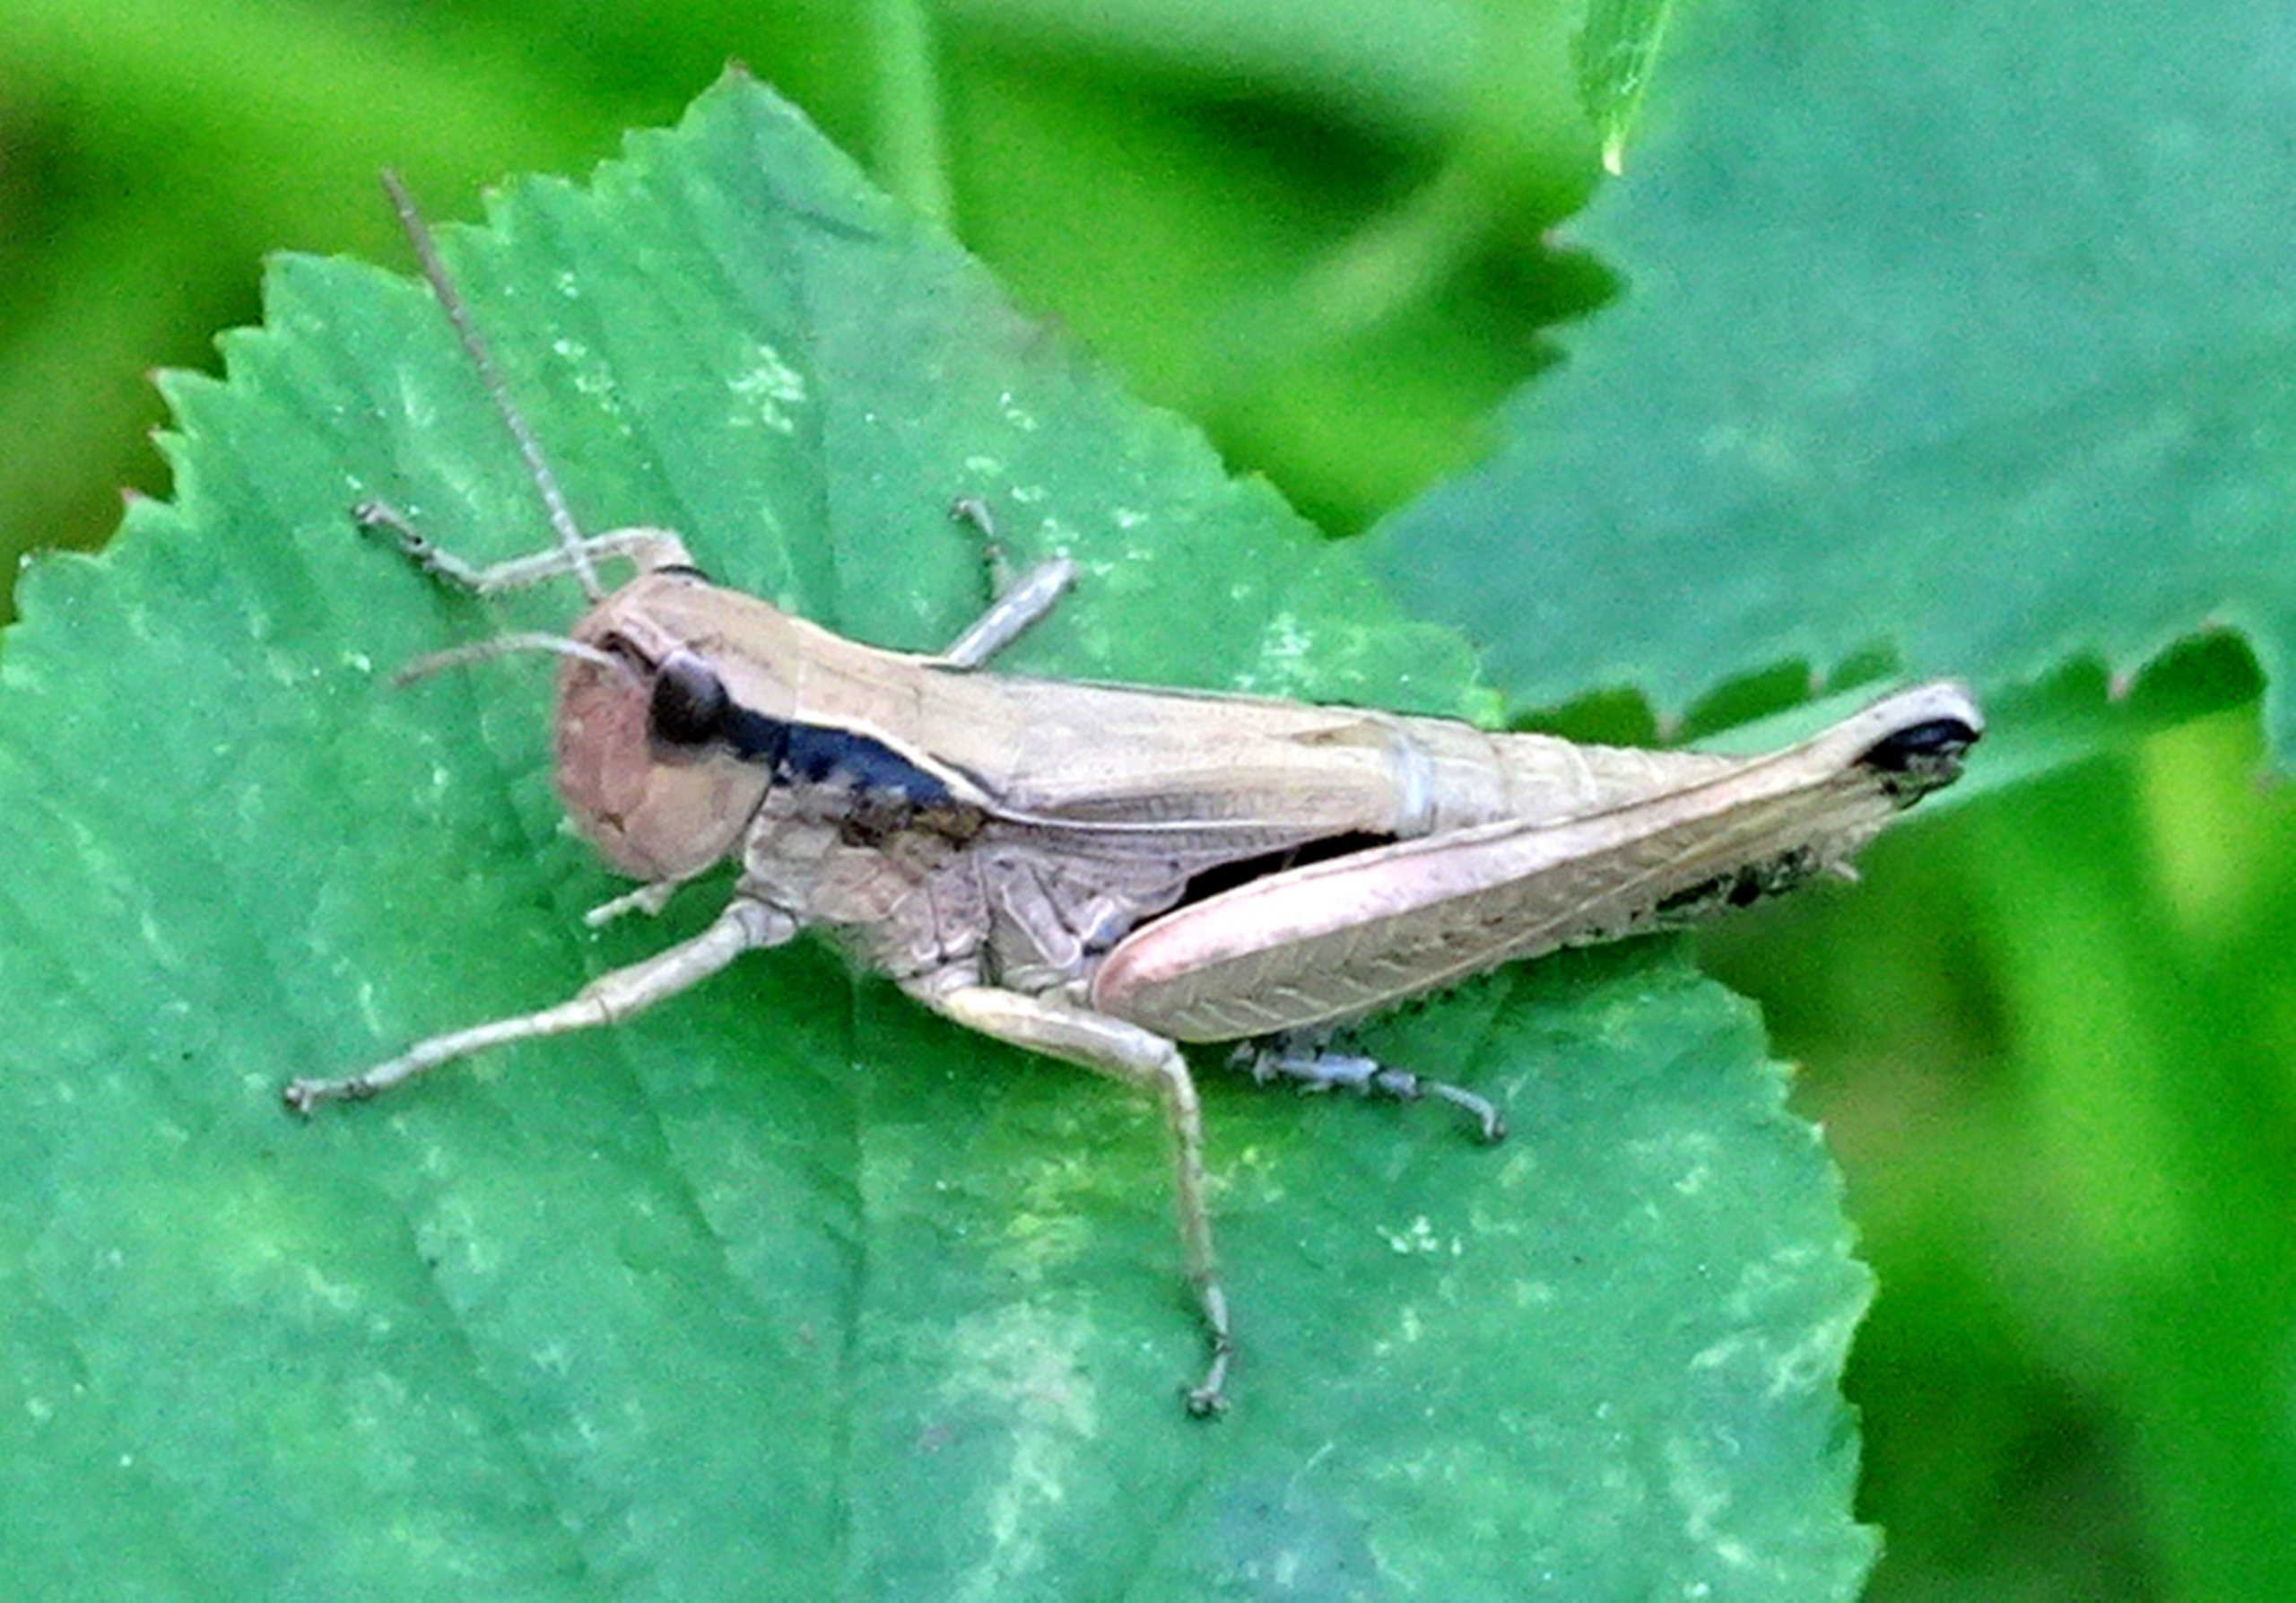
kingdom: Animalia
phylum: Arthropoda
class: Insecta
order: Orthoptera
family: Acrididae
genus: Pseudochorthippus
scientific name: Pseudochorthippus parallelus
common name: Enggræshoppe
